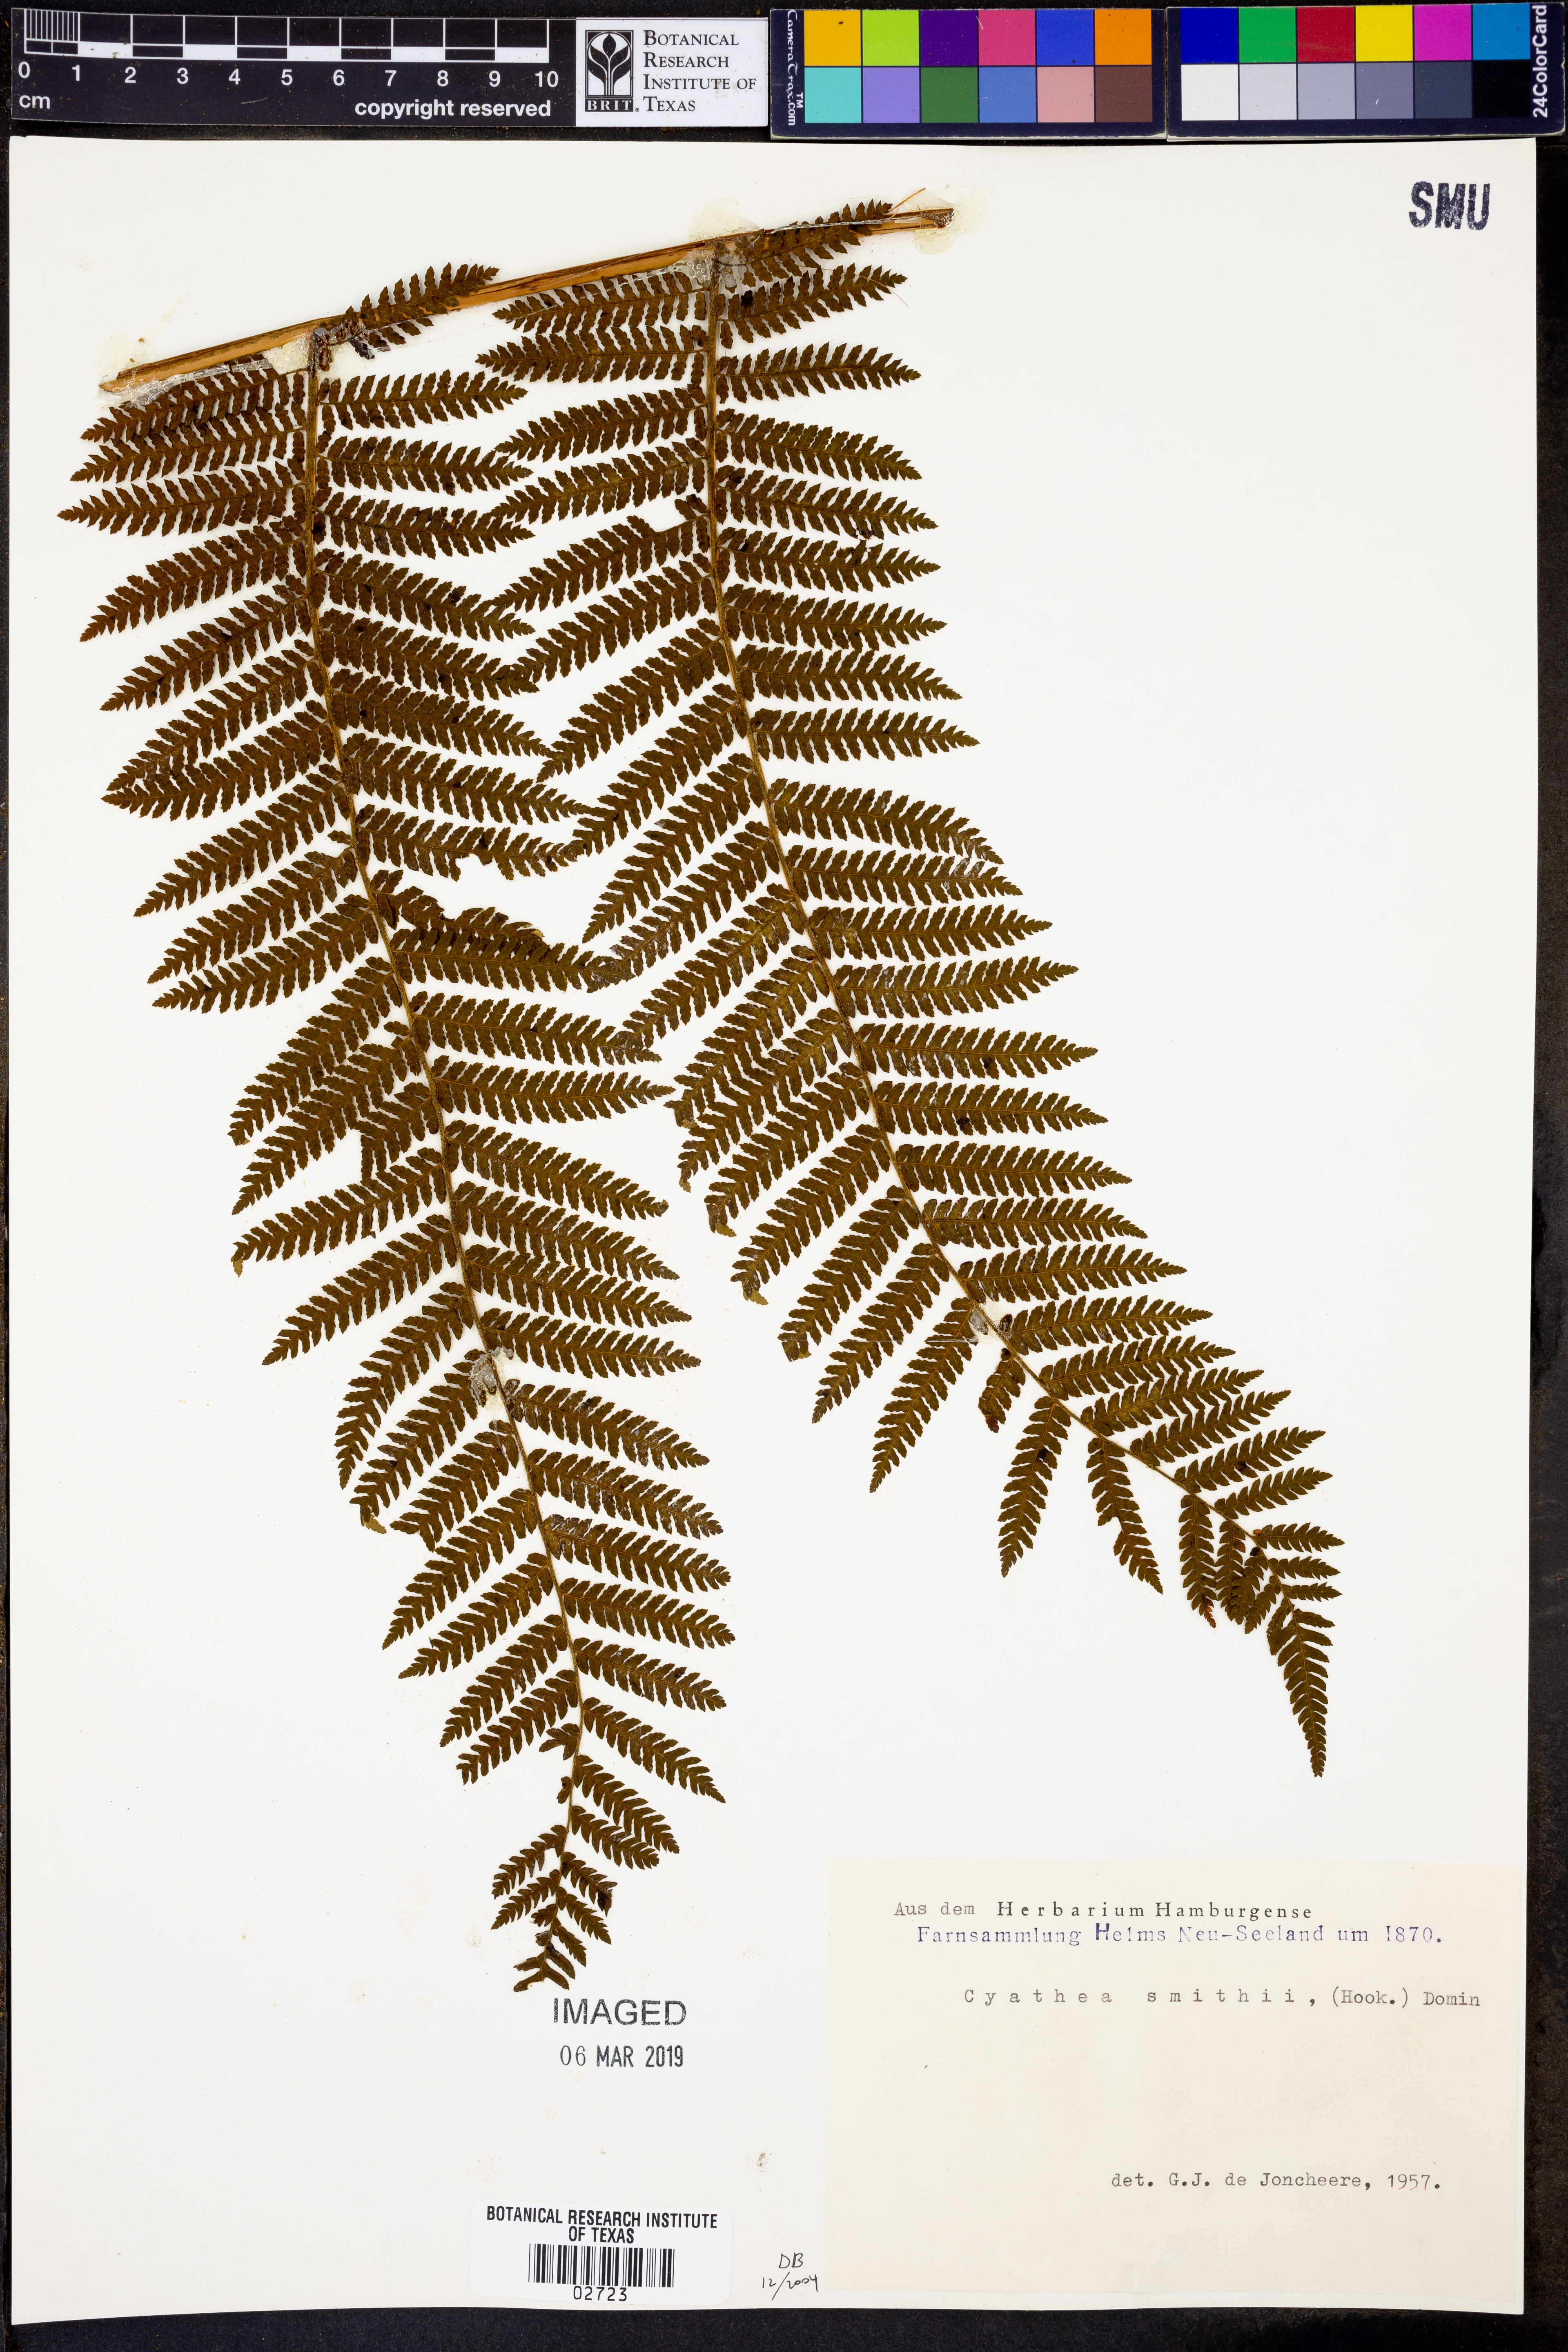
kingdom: Plantae
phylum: Tracheophyta
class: Polypodiopsida
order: Cyatheales
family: Cyatheaceae
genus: Alsophila
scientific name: Alsophila smithii
